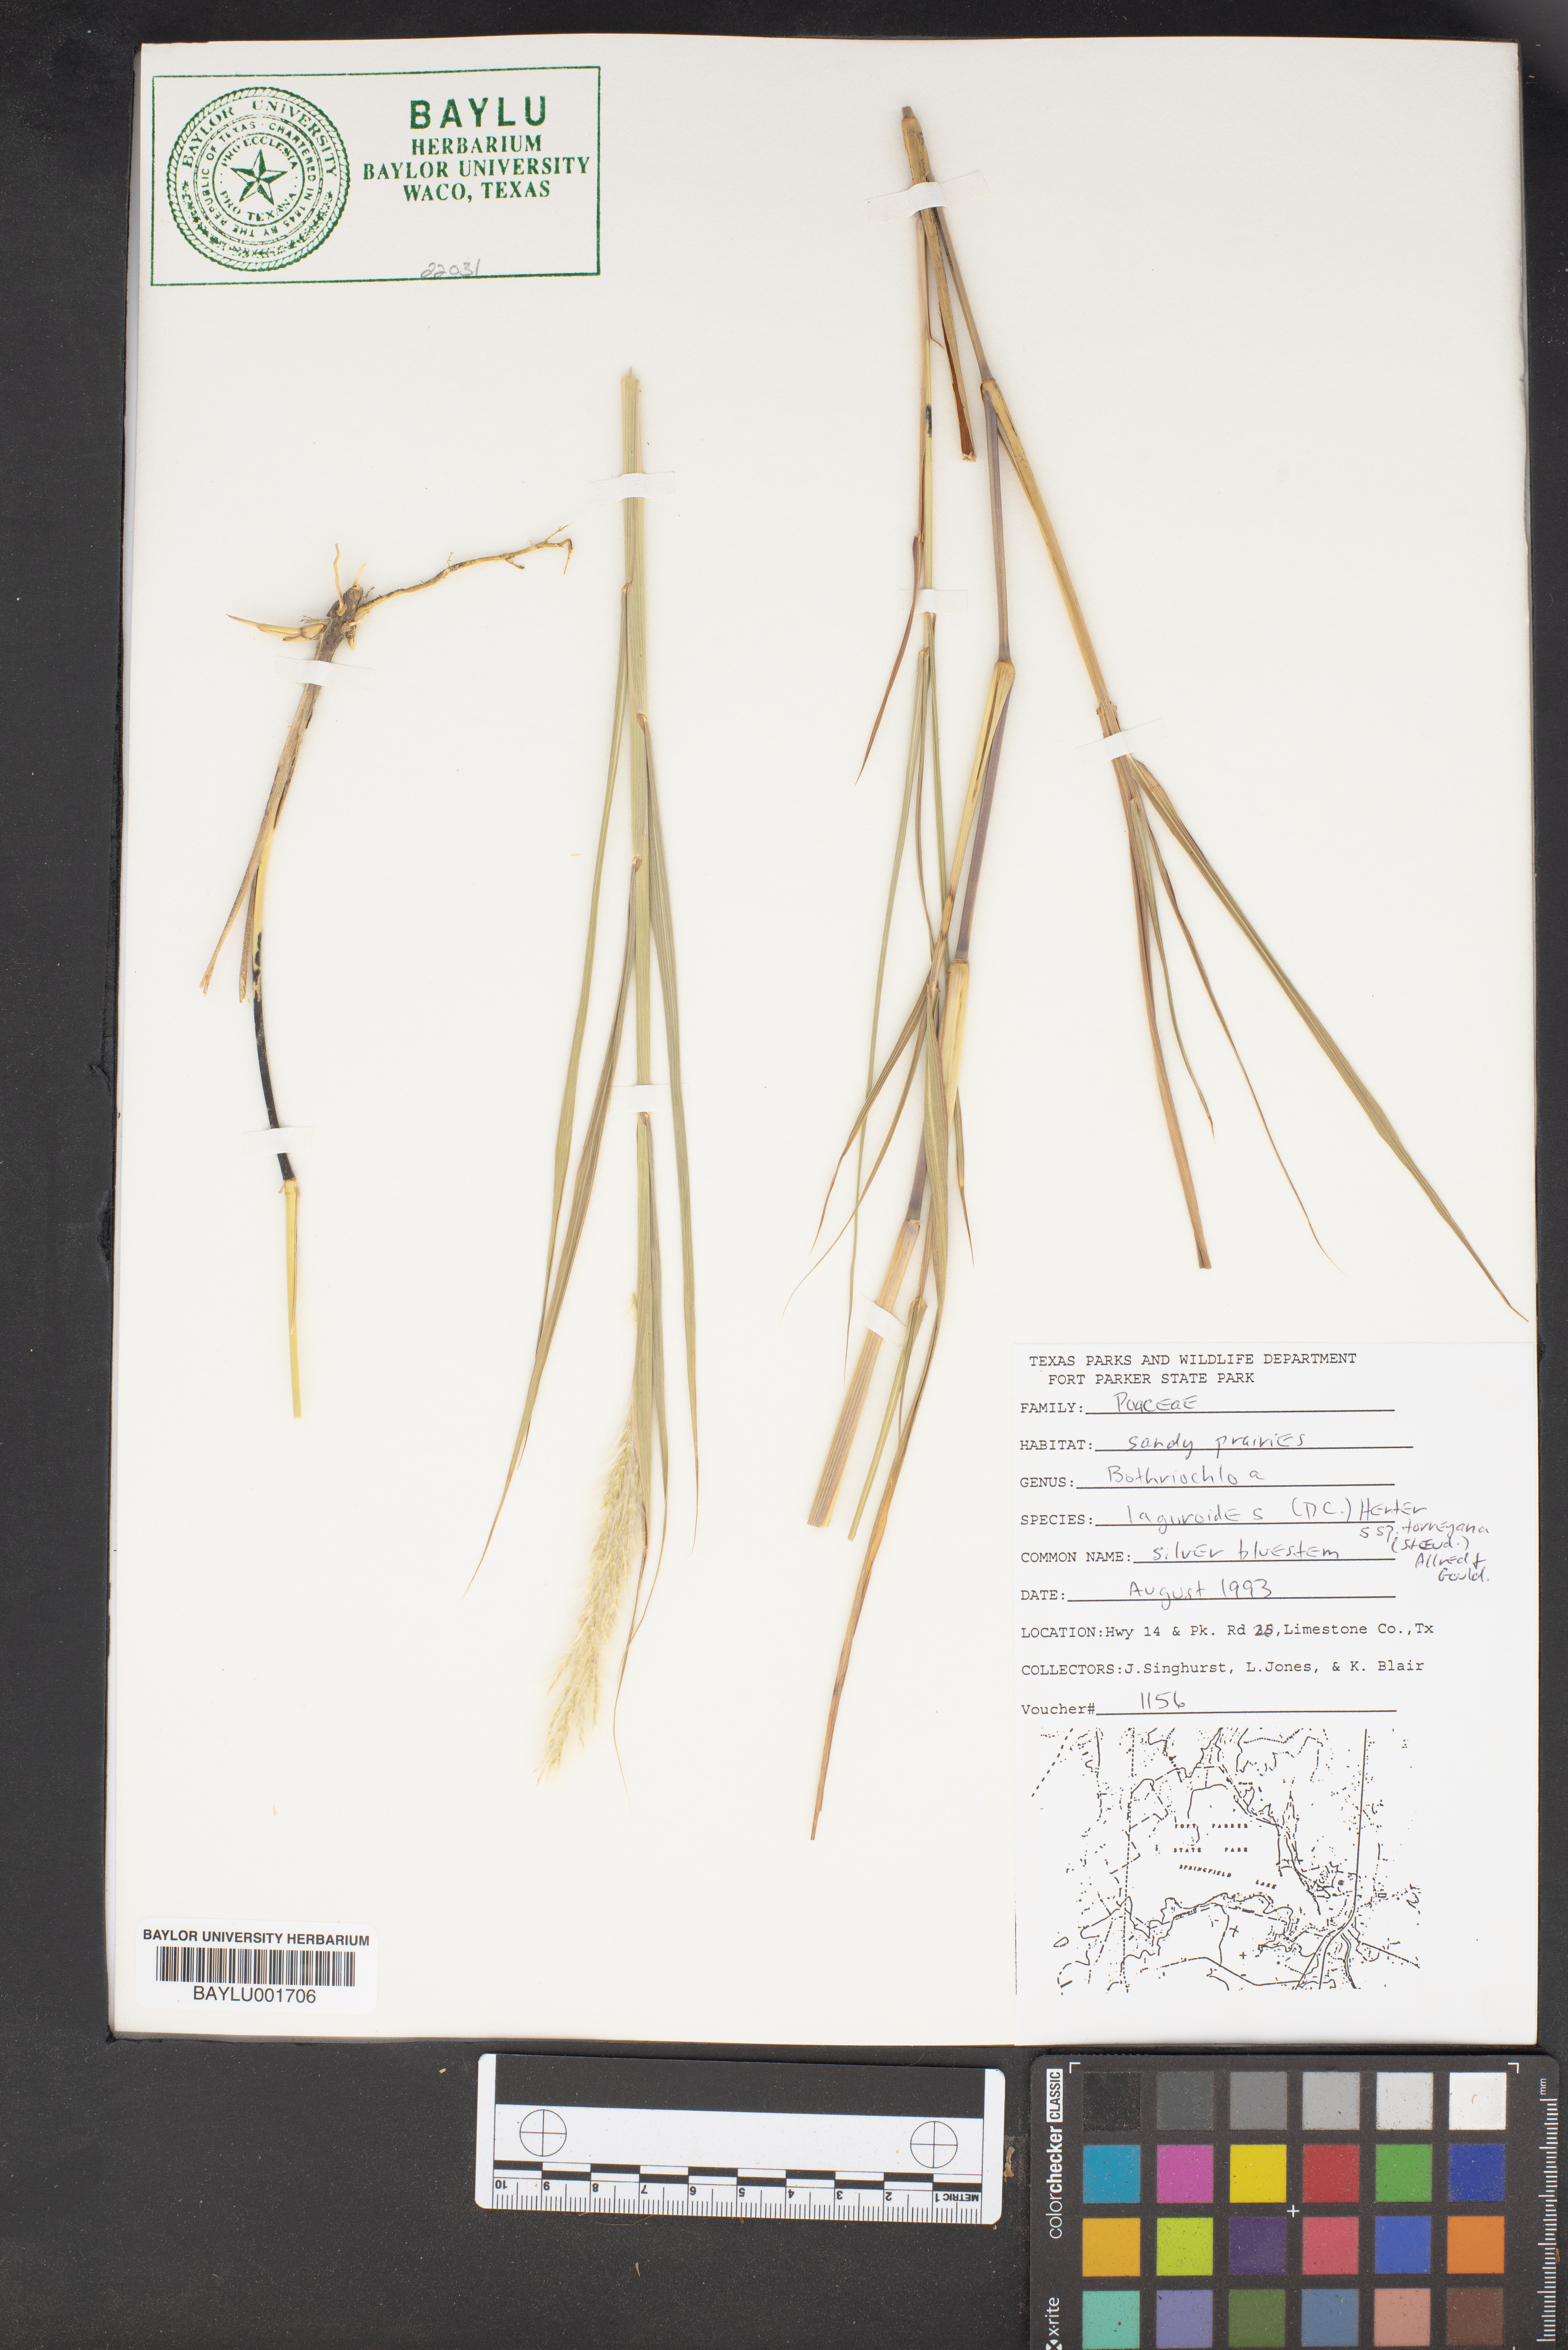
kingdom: Plantae
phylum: Tracheophyta
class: Liliopsida
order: Poales
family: Poaceae
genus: Bothriochloa
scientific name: Bothriochloa laguroides
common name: Silver bluestem
